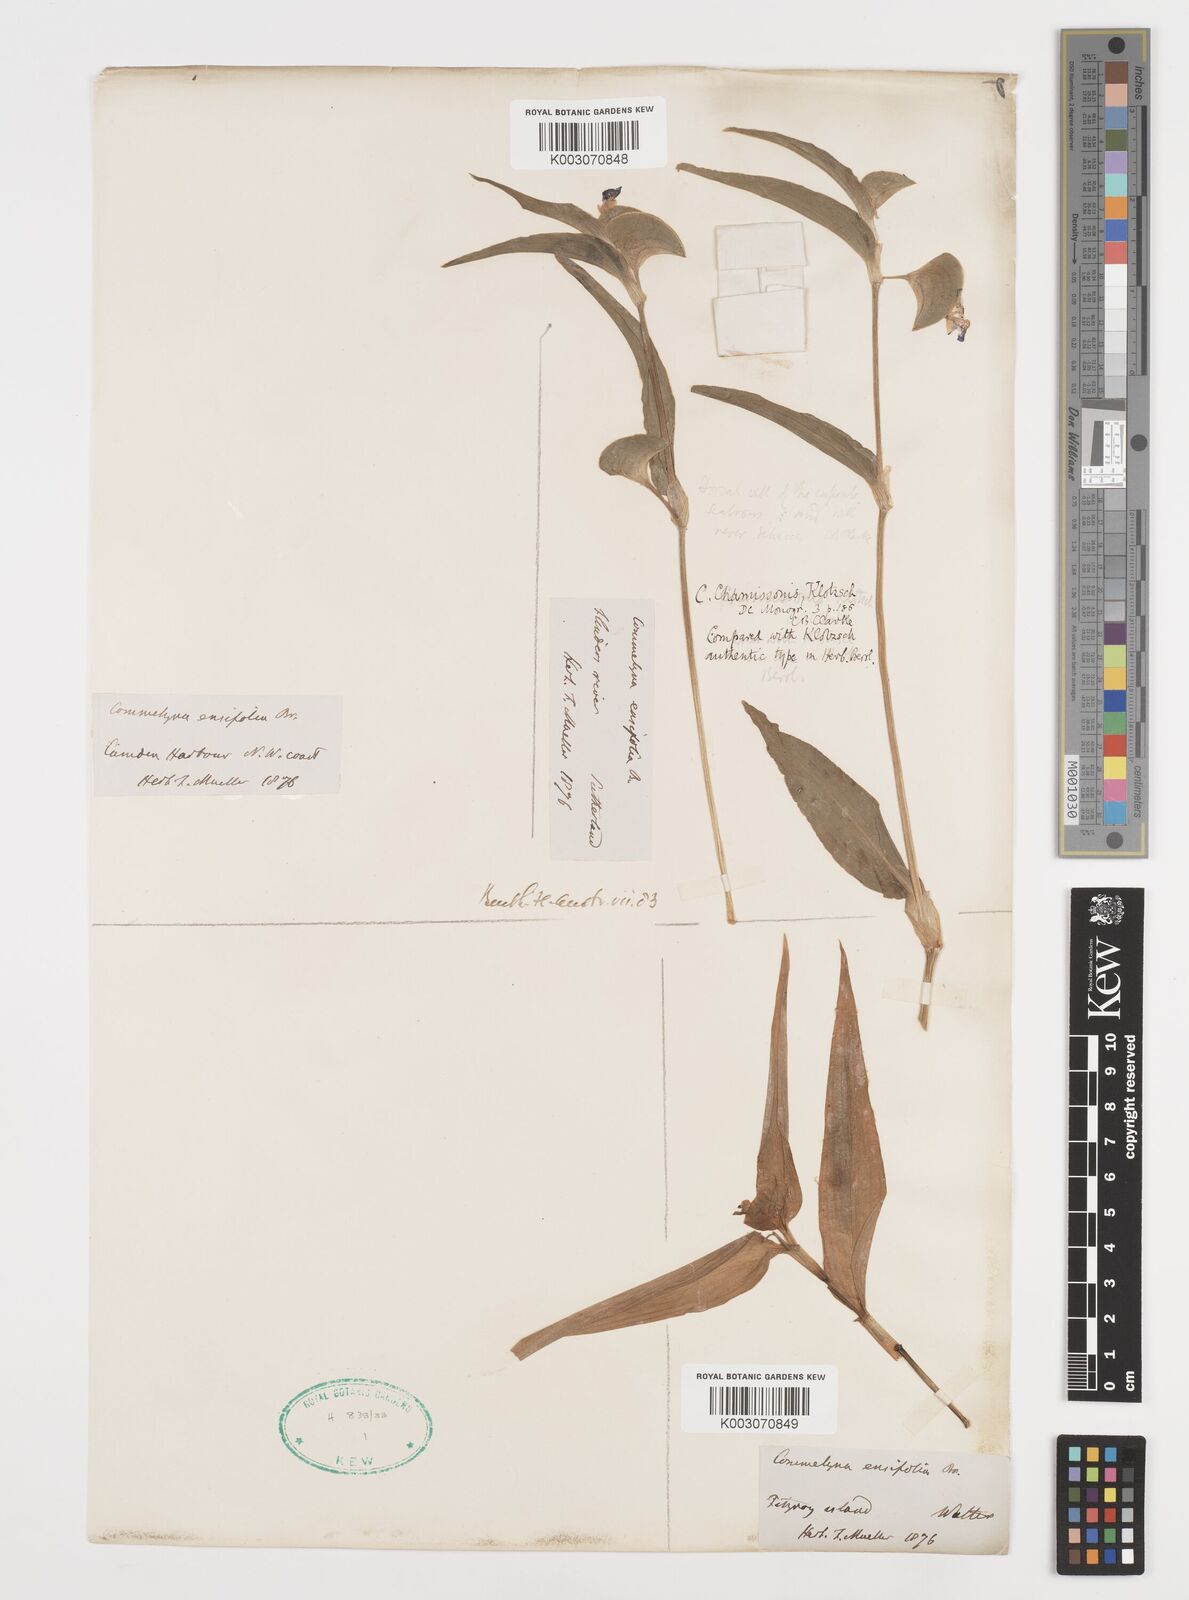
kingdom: Plantae
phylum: Tracheophyta
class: Liliopsida
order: Commelinales
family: Commelinaceae
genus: Commelina
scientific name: Commelina chamissonis
